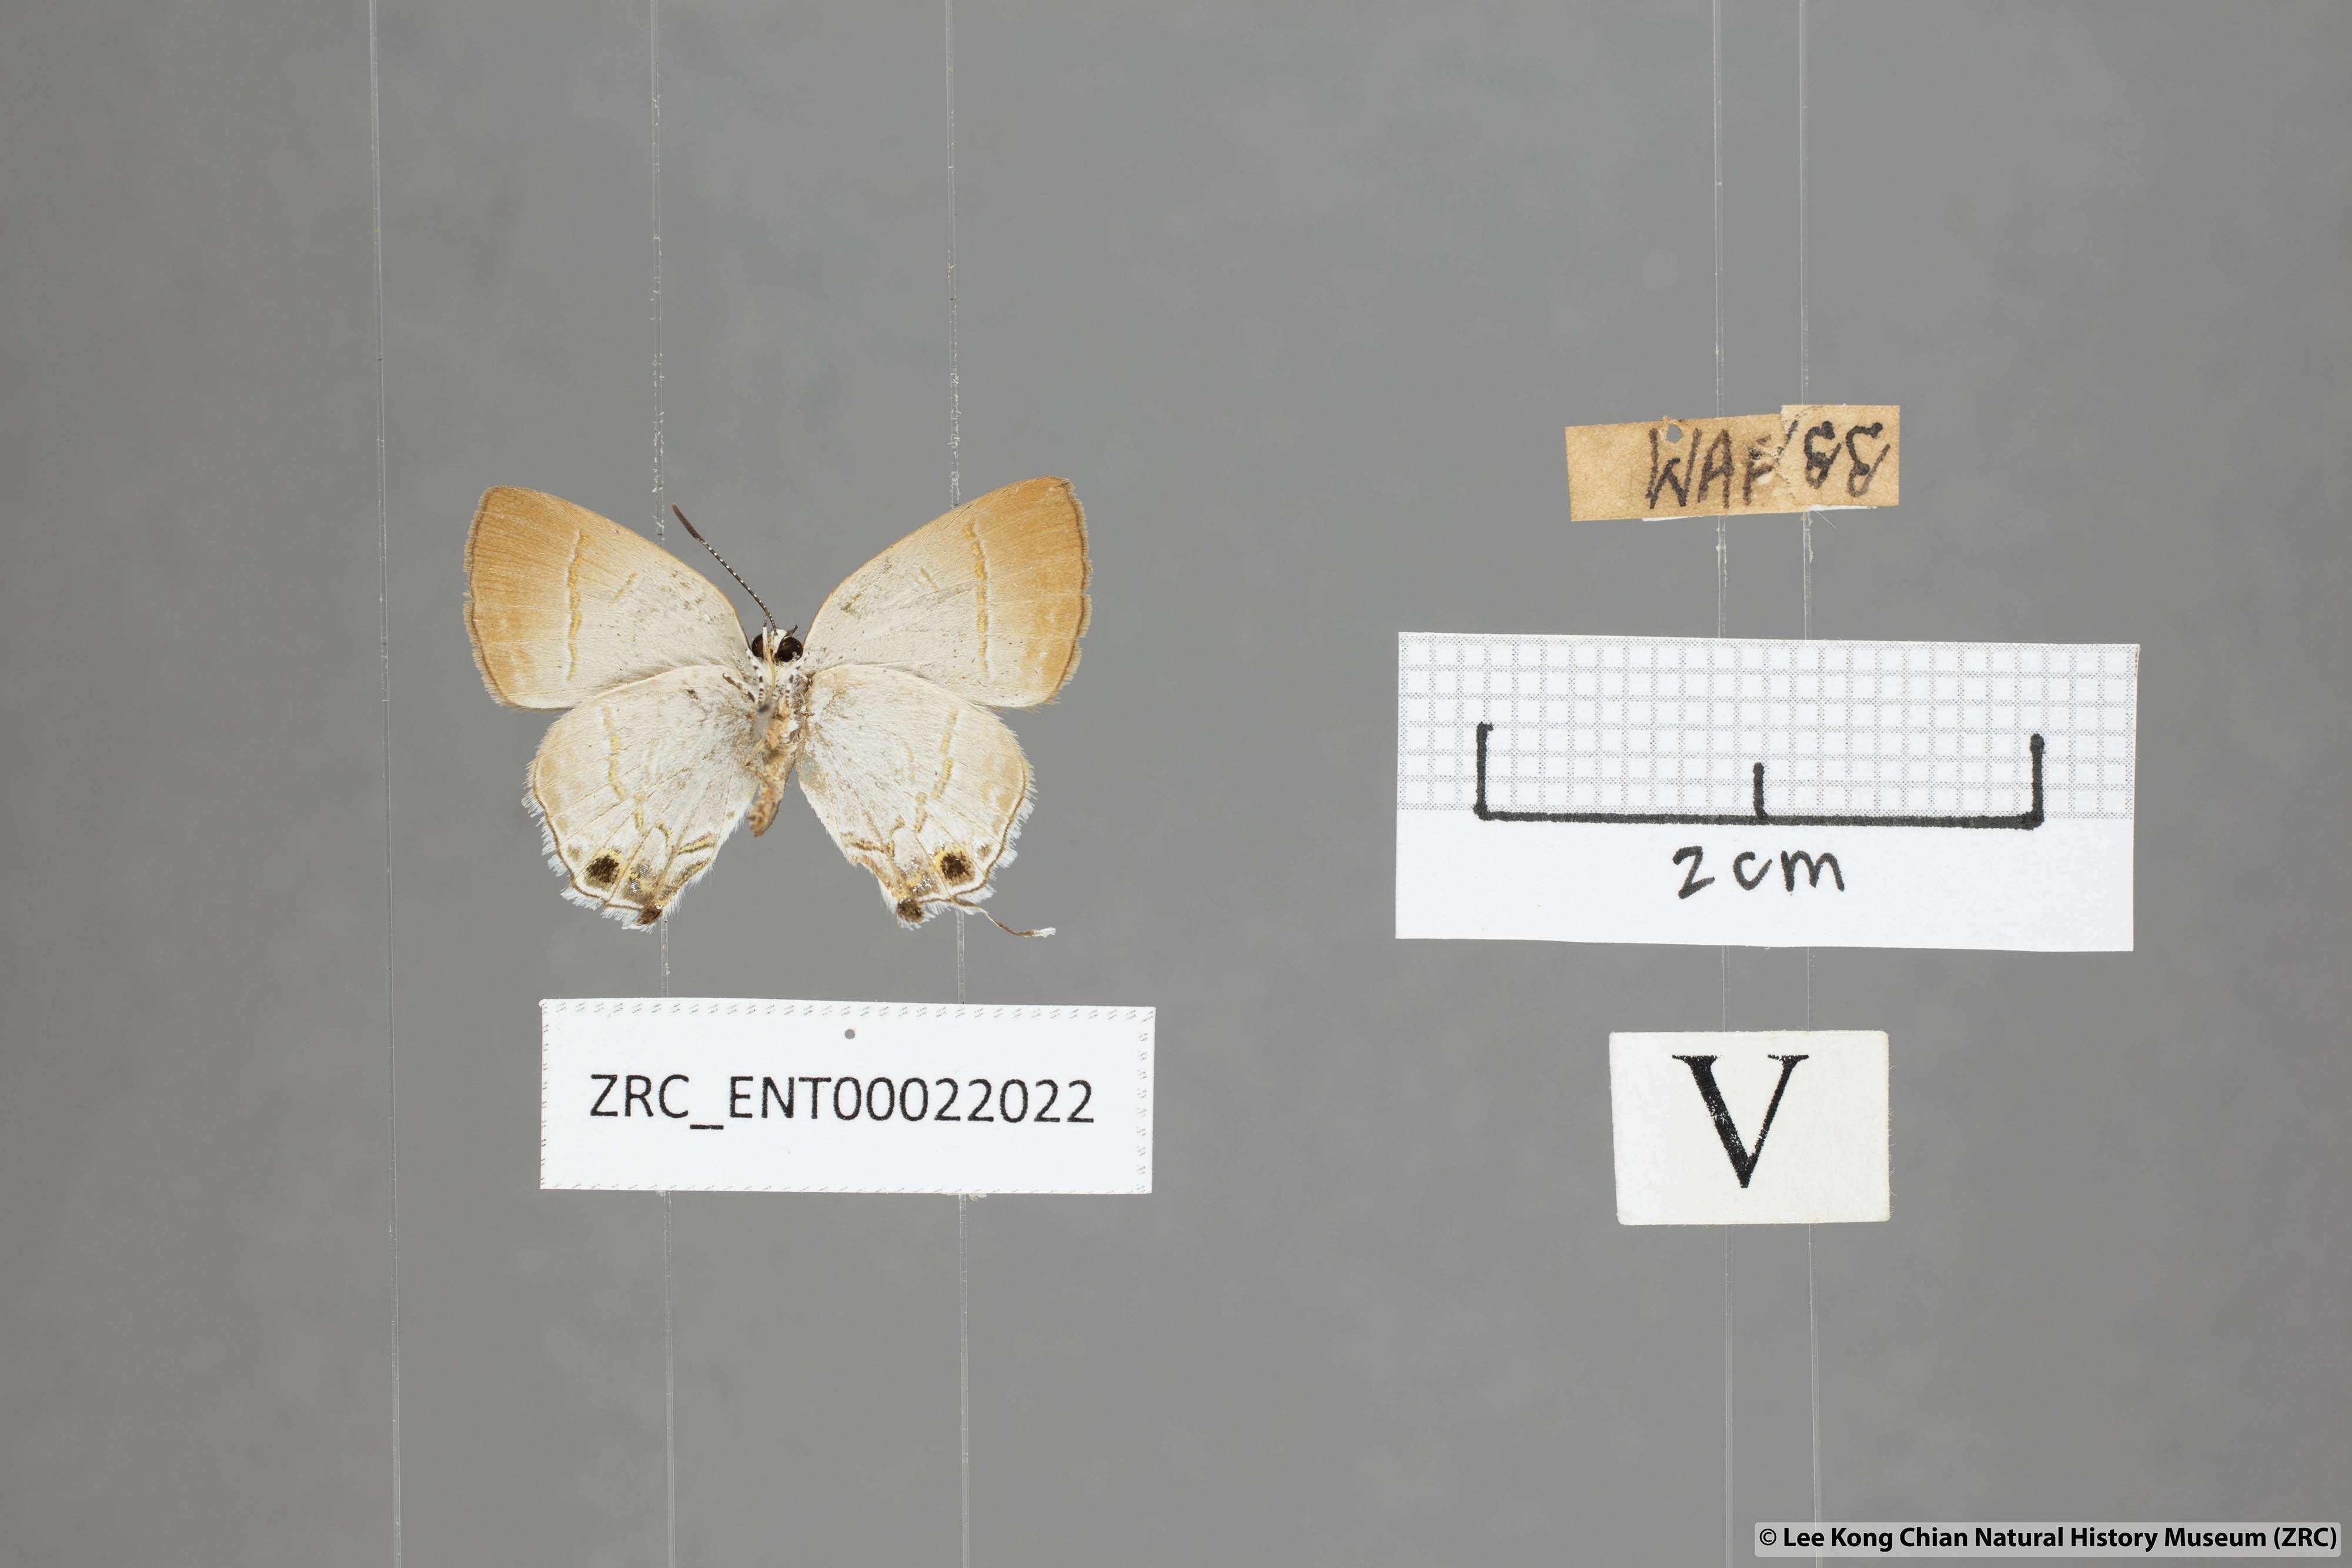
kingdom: Animalia
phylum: Arthropoda
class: Insecta
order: Lepidoptera
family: Lycaenidae
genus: Sinthusa
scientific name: Sinthusa nasaka
